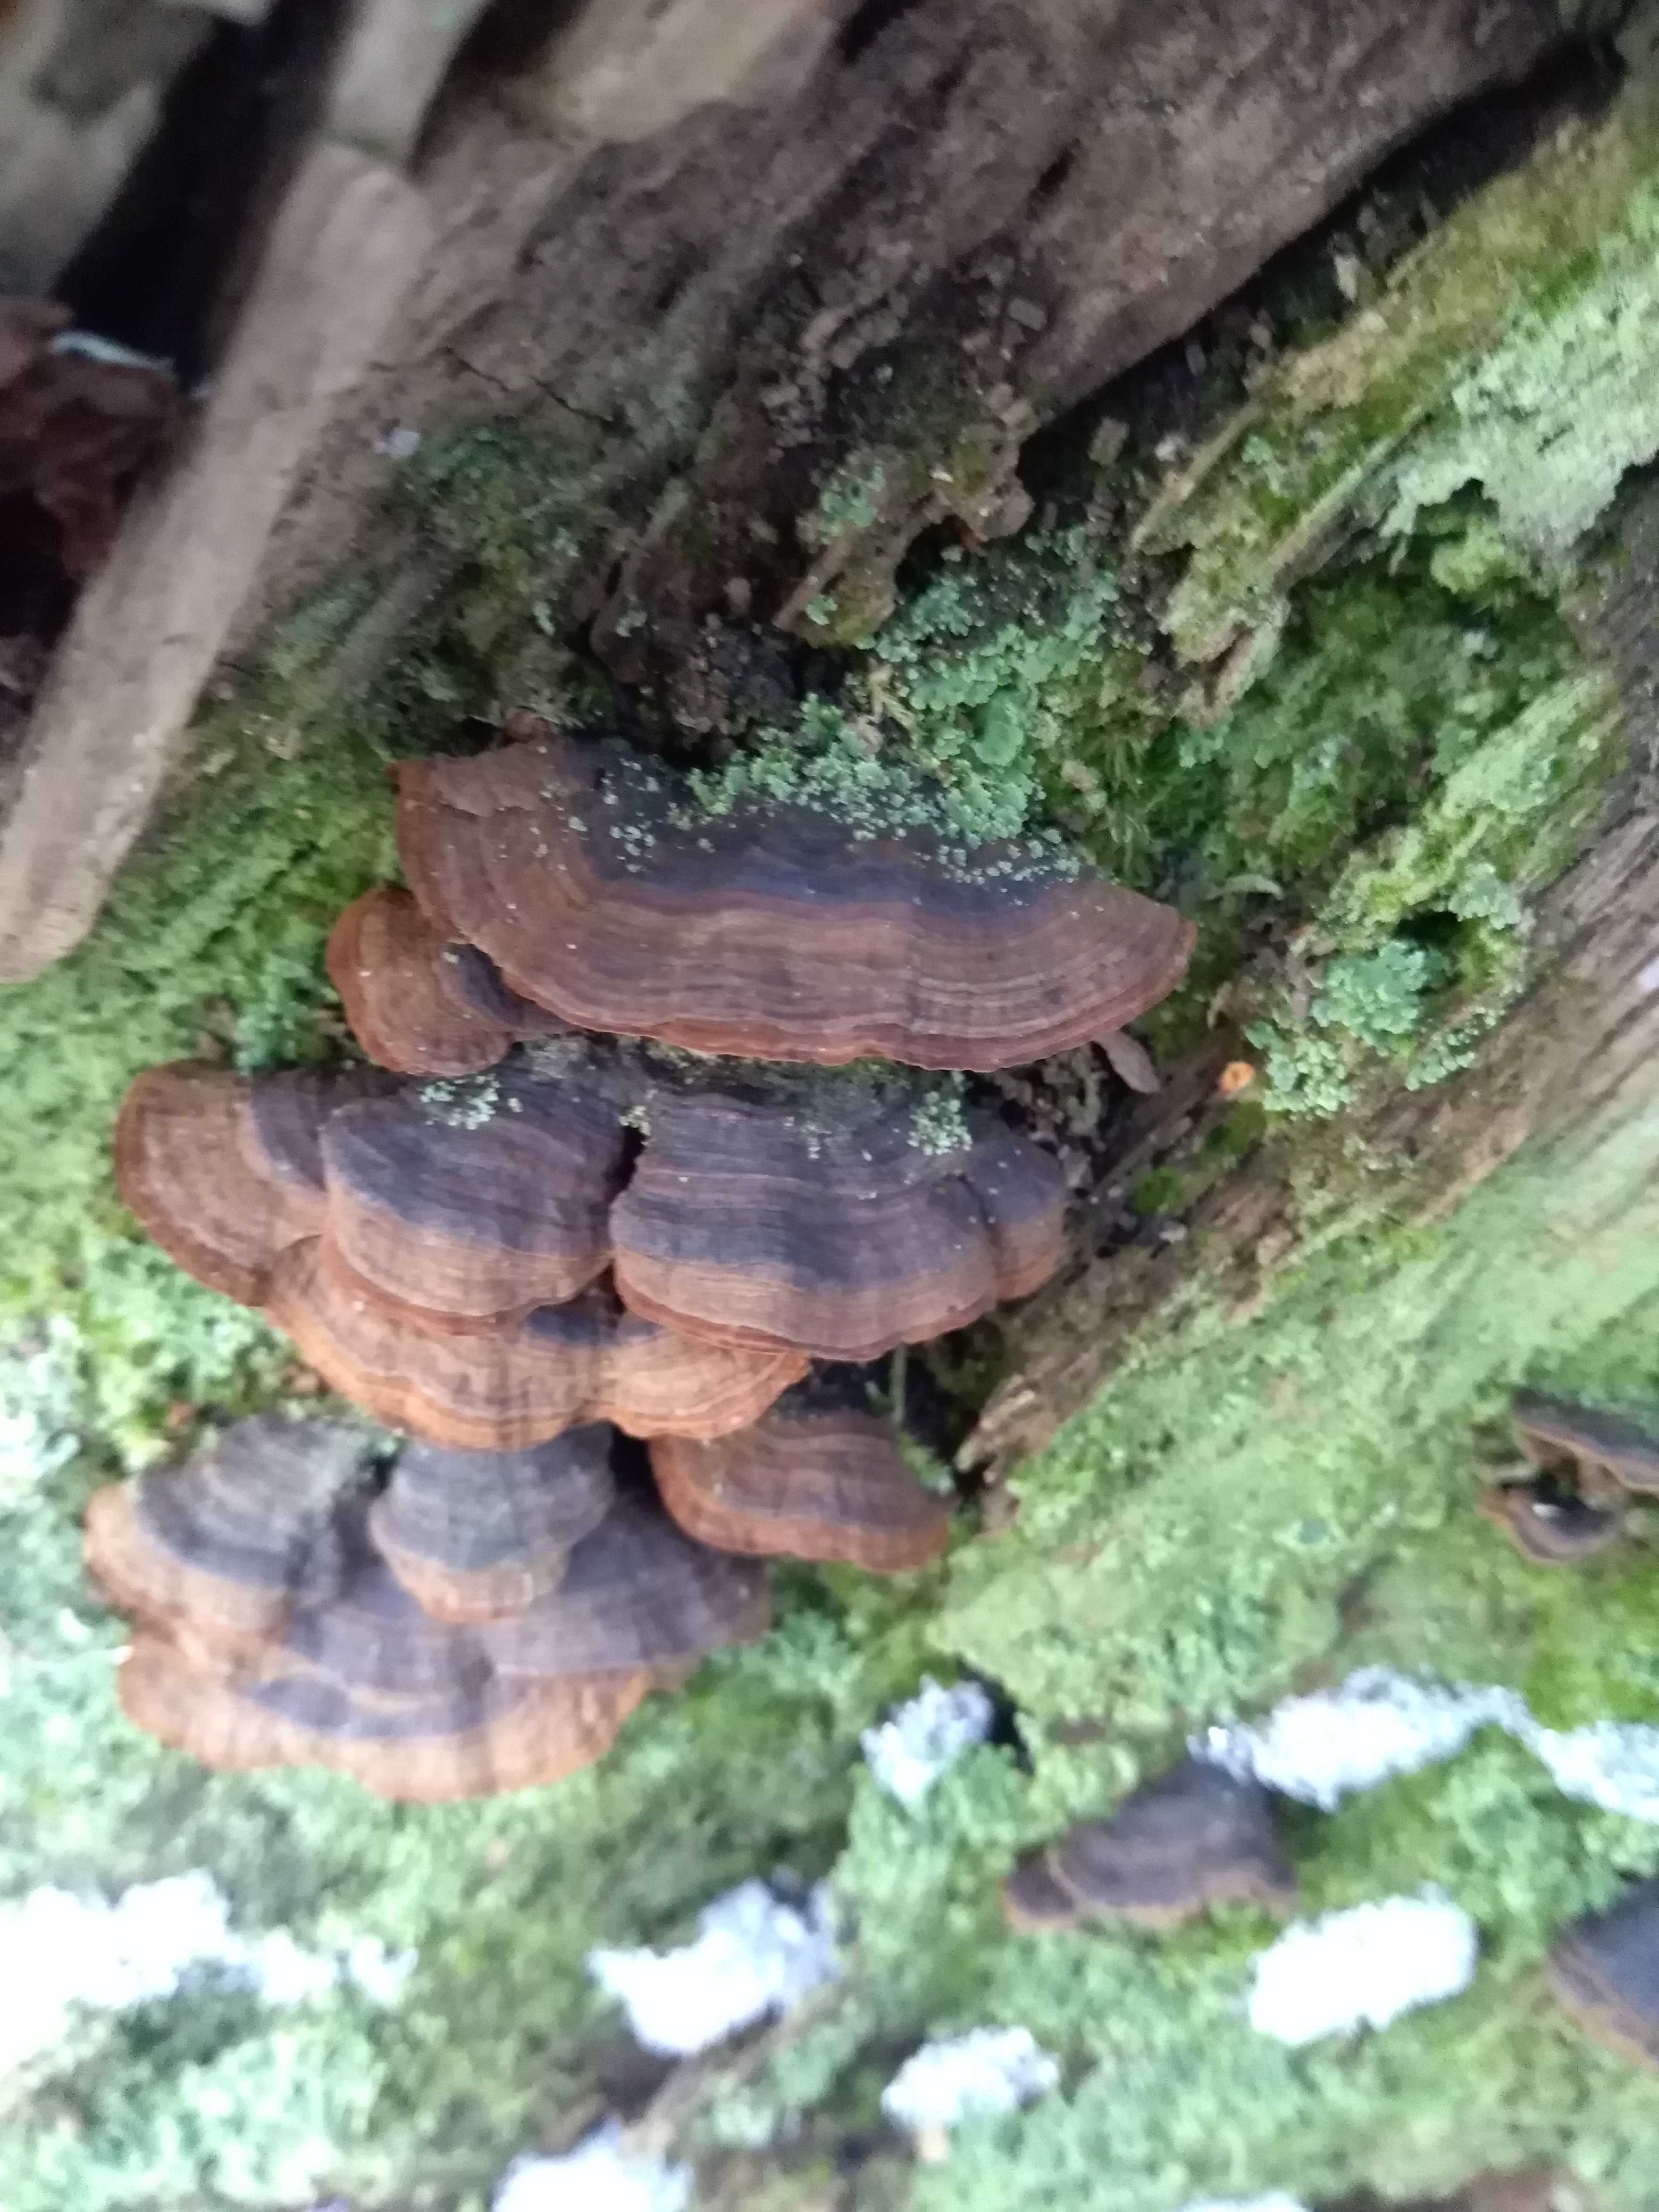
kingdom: Fungi
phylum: Basidiomycota
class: Agaricomycetes
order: Hymenochaetales
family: Hymenochaetaceae
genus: Hymenochaete
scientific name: Hymenochaete rubiginosa
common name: stiv ruslædersvamp
